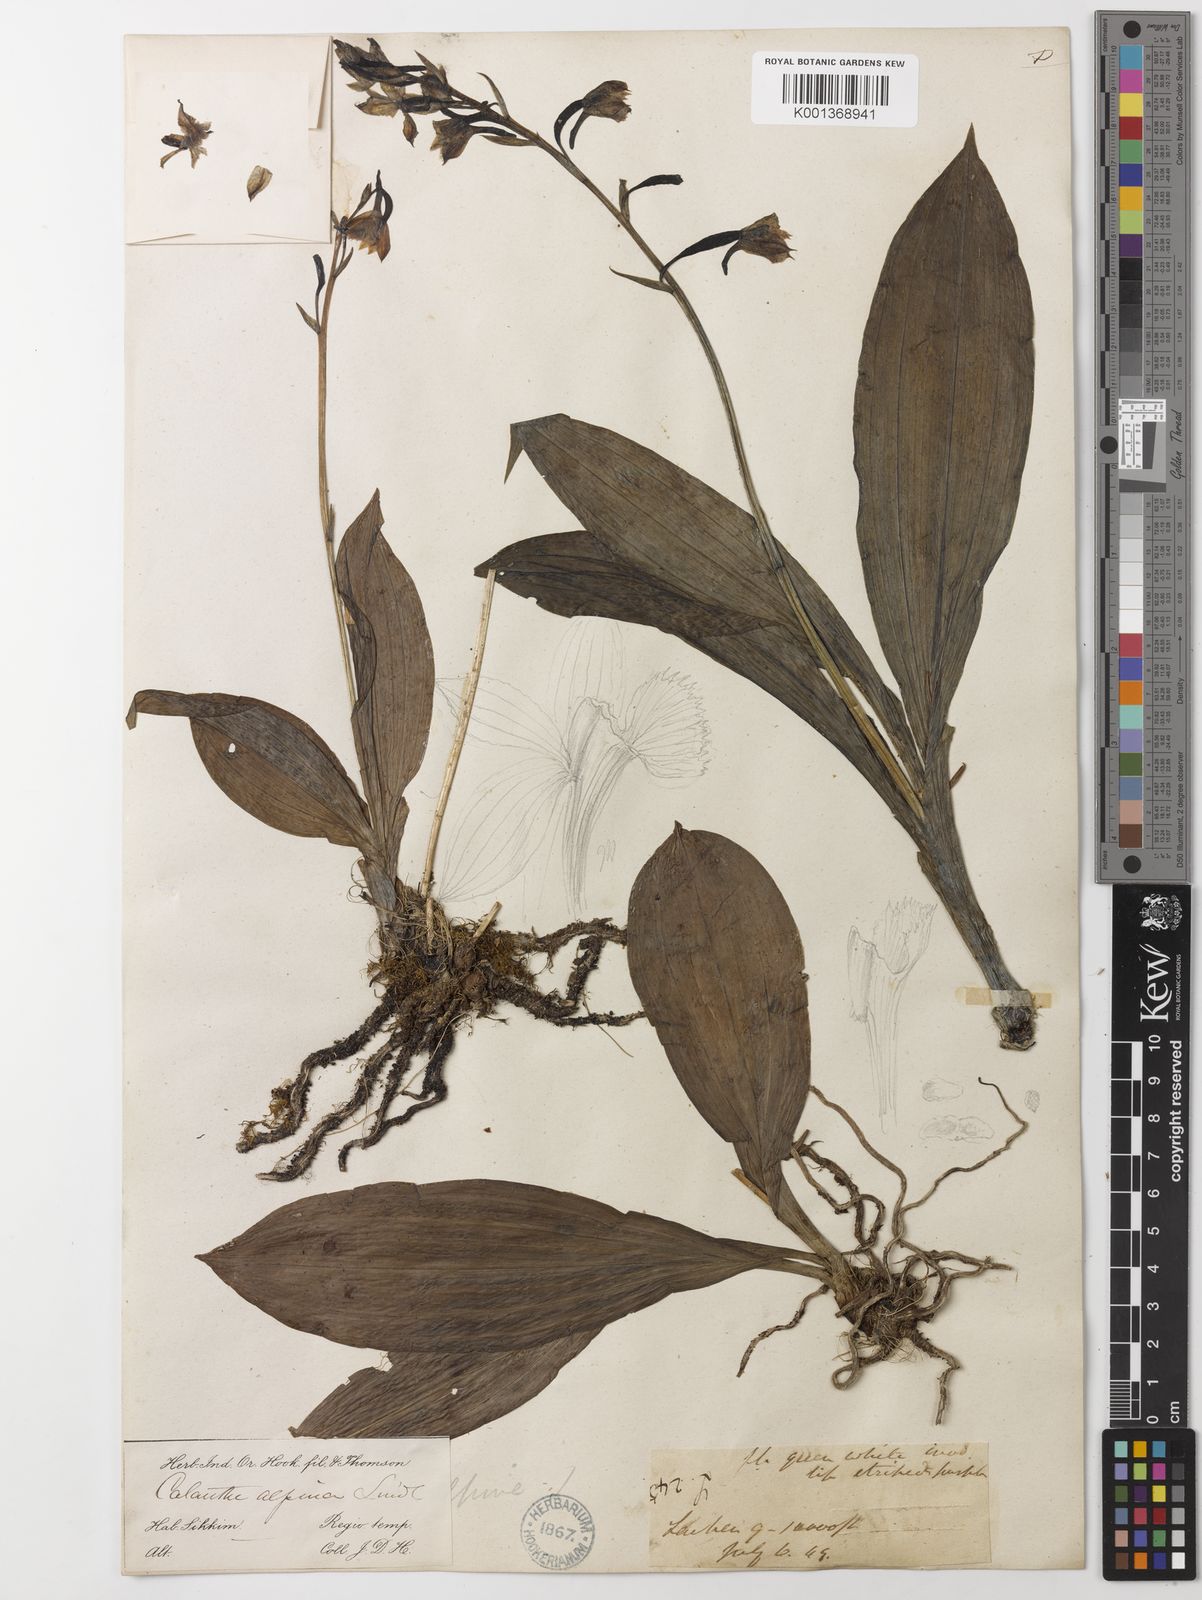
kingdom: Plantae
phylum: Tracheophyta
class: Liliopsida
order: Asparagales
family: Orchidaceae
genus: Calanthe
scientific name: Calanthe alpina
